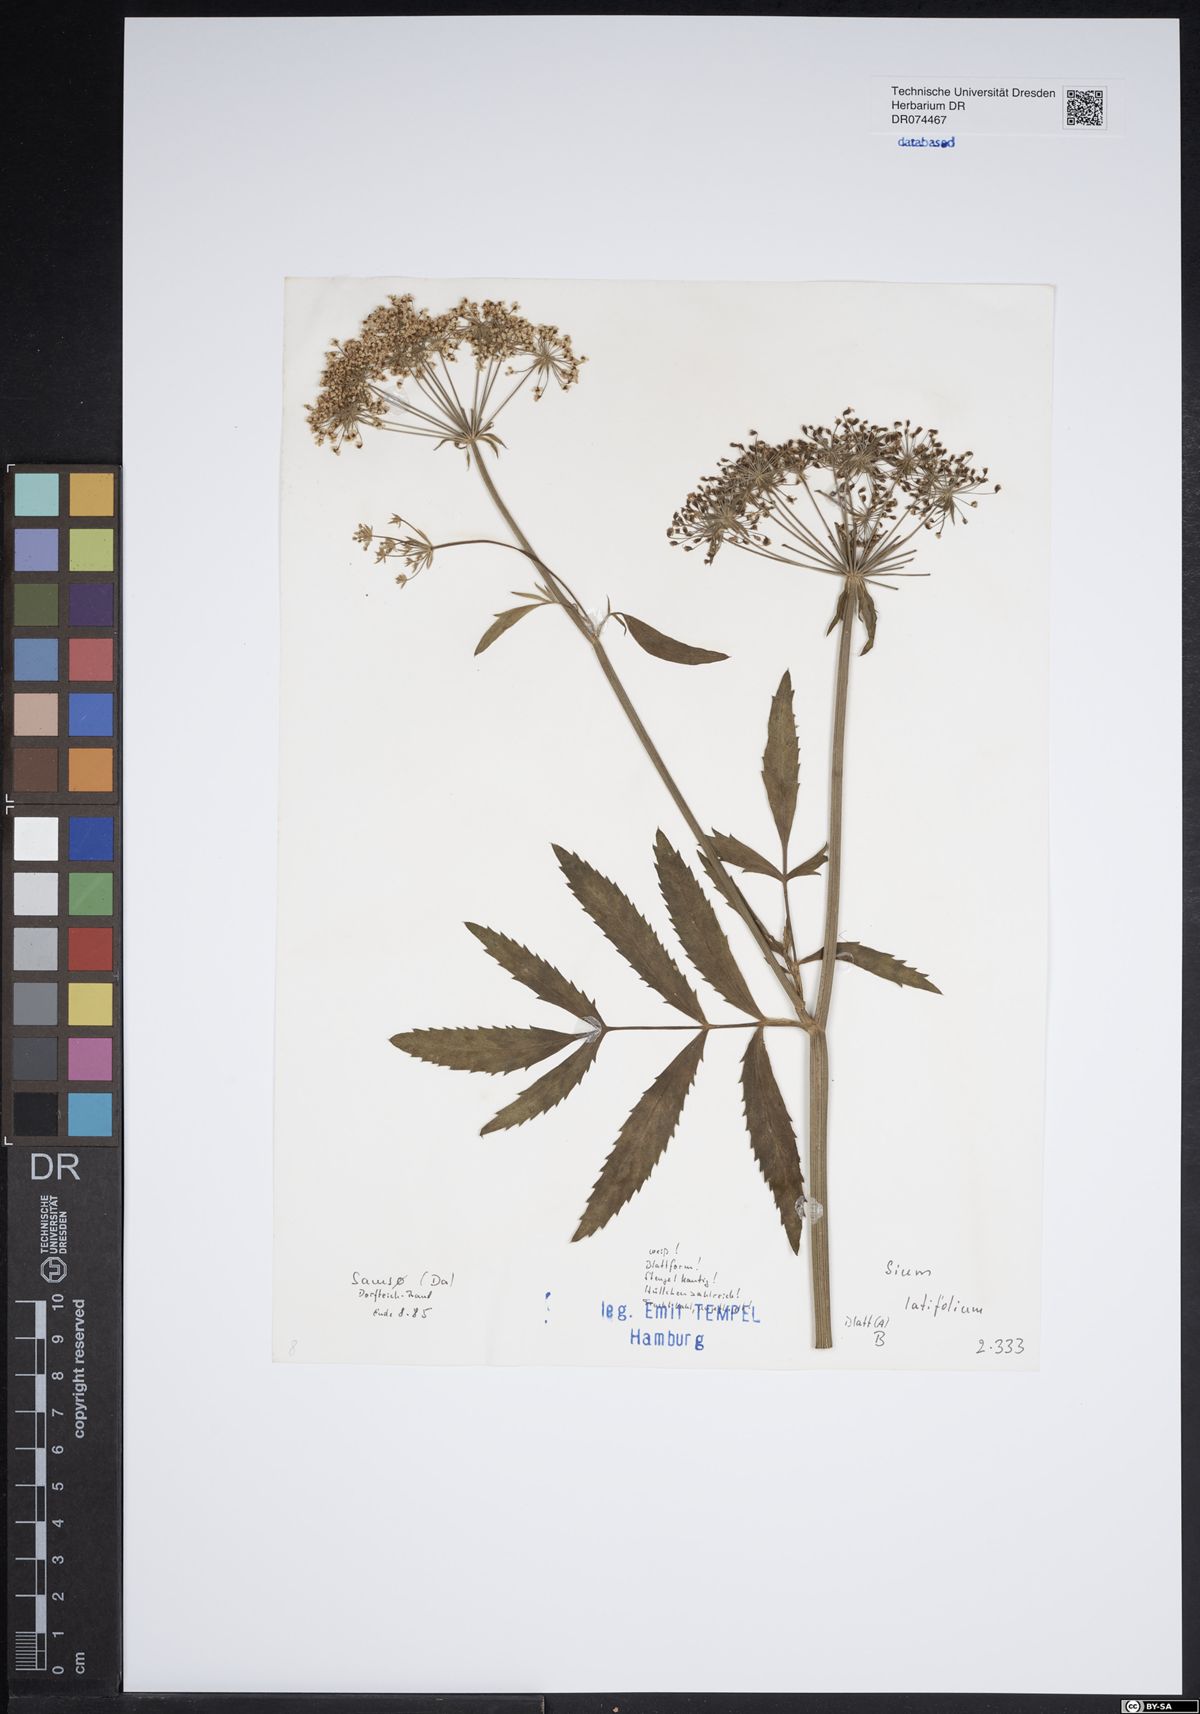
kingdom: Plantae
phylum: Tracheophyta
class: Magnoliopsida
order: Apiales
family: Apiaceae
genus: Sium
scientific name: Sium latifolium
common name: Greater water-parsnip
